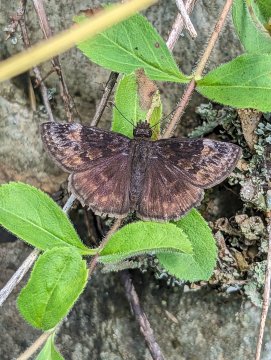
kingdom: Animalia
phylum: Arthropoda
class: Insecta
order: Lepidoptera
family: Hesperiidae
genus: Gesta
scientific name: Gesta
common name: Wild Indigo Duskywing
